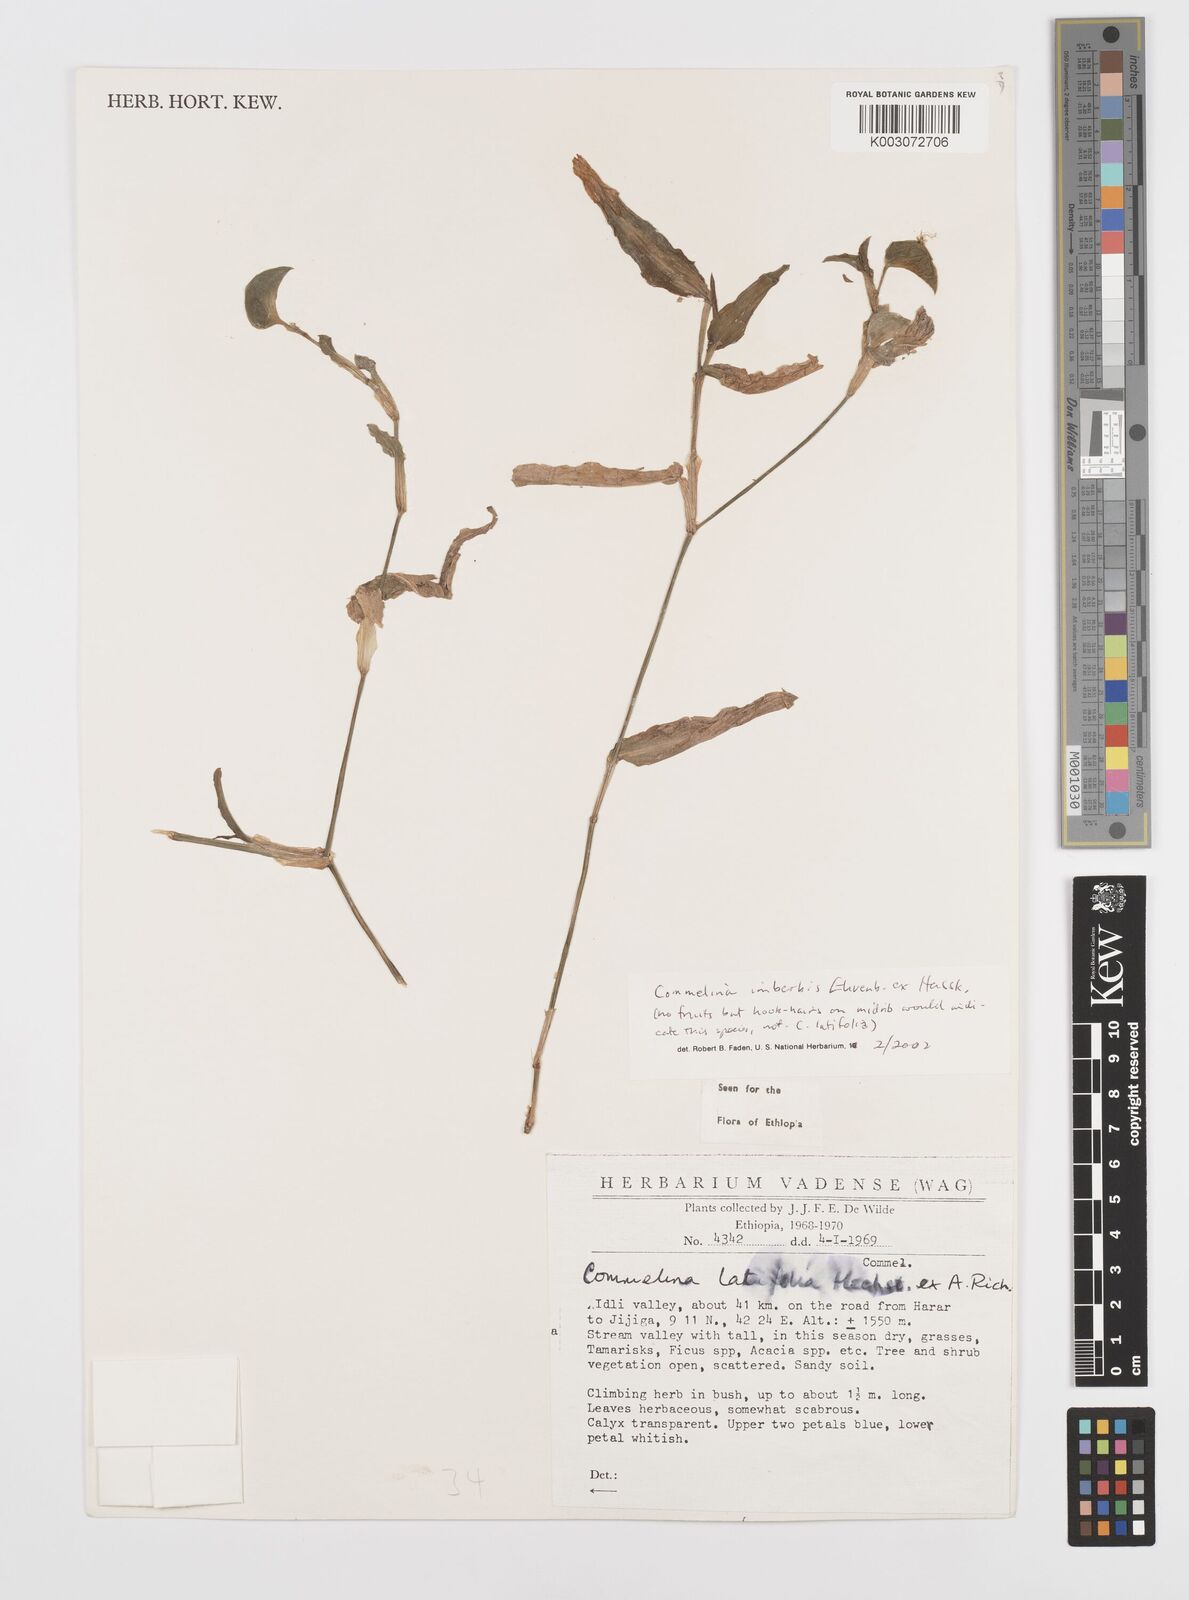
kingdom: Plantae
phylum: Tracheophyta
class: Liliopsida
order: Commelinales
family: Commelinaceae
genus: Commelina
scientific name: Commelina imberbis
